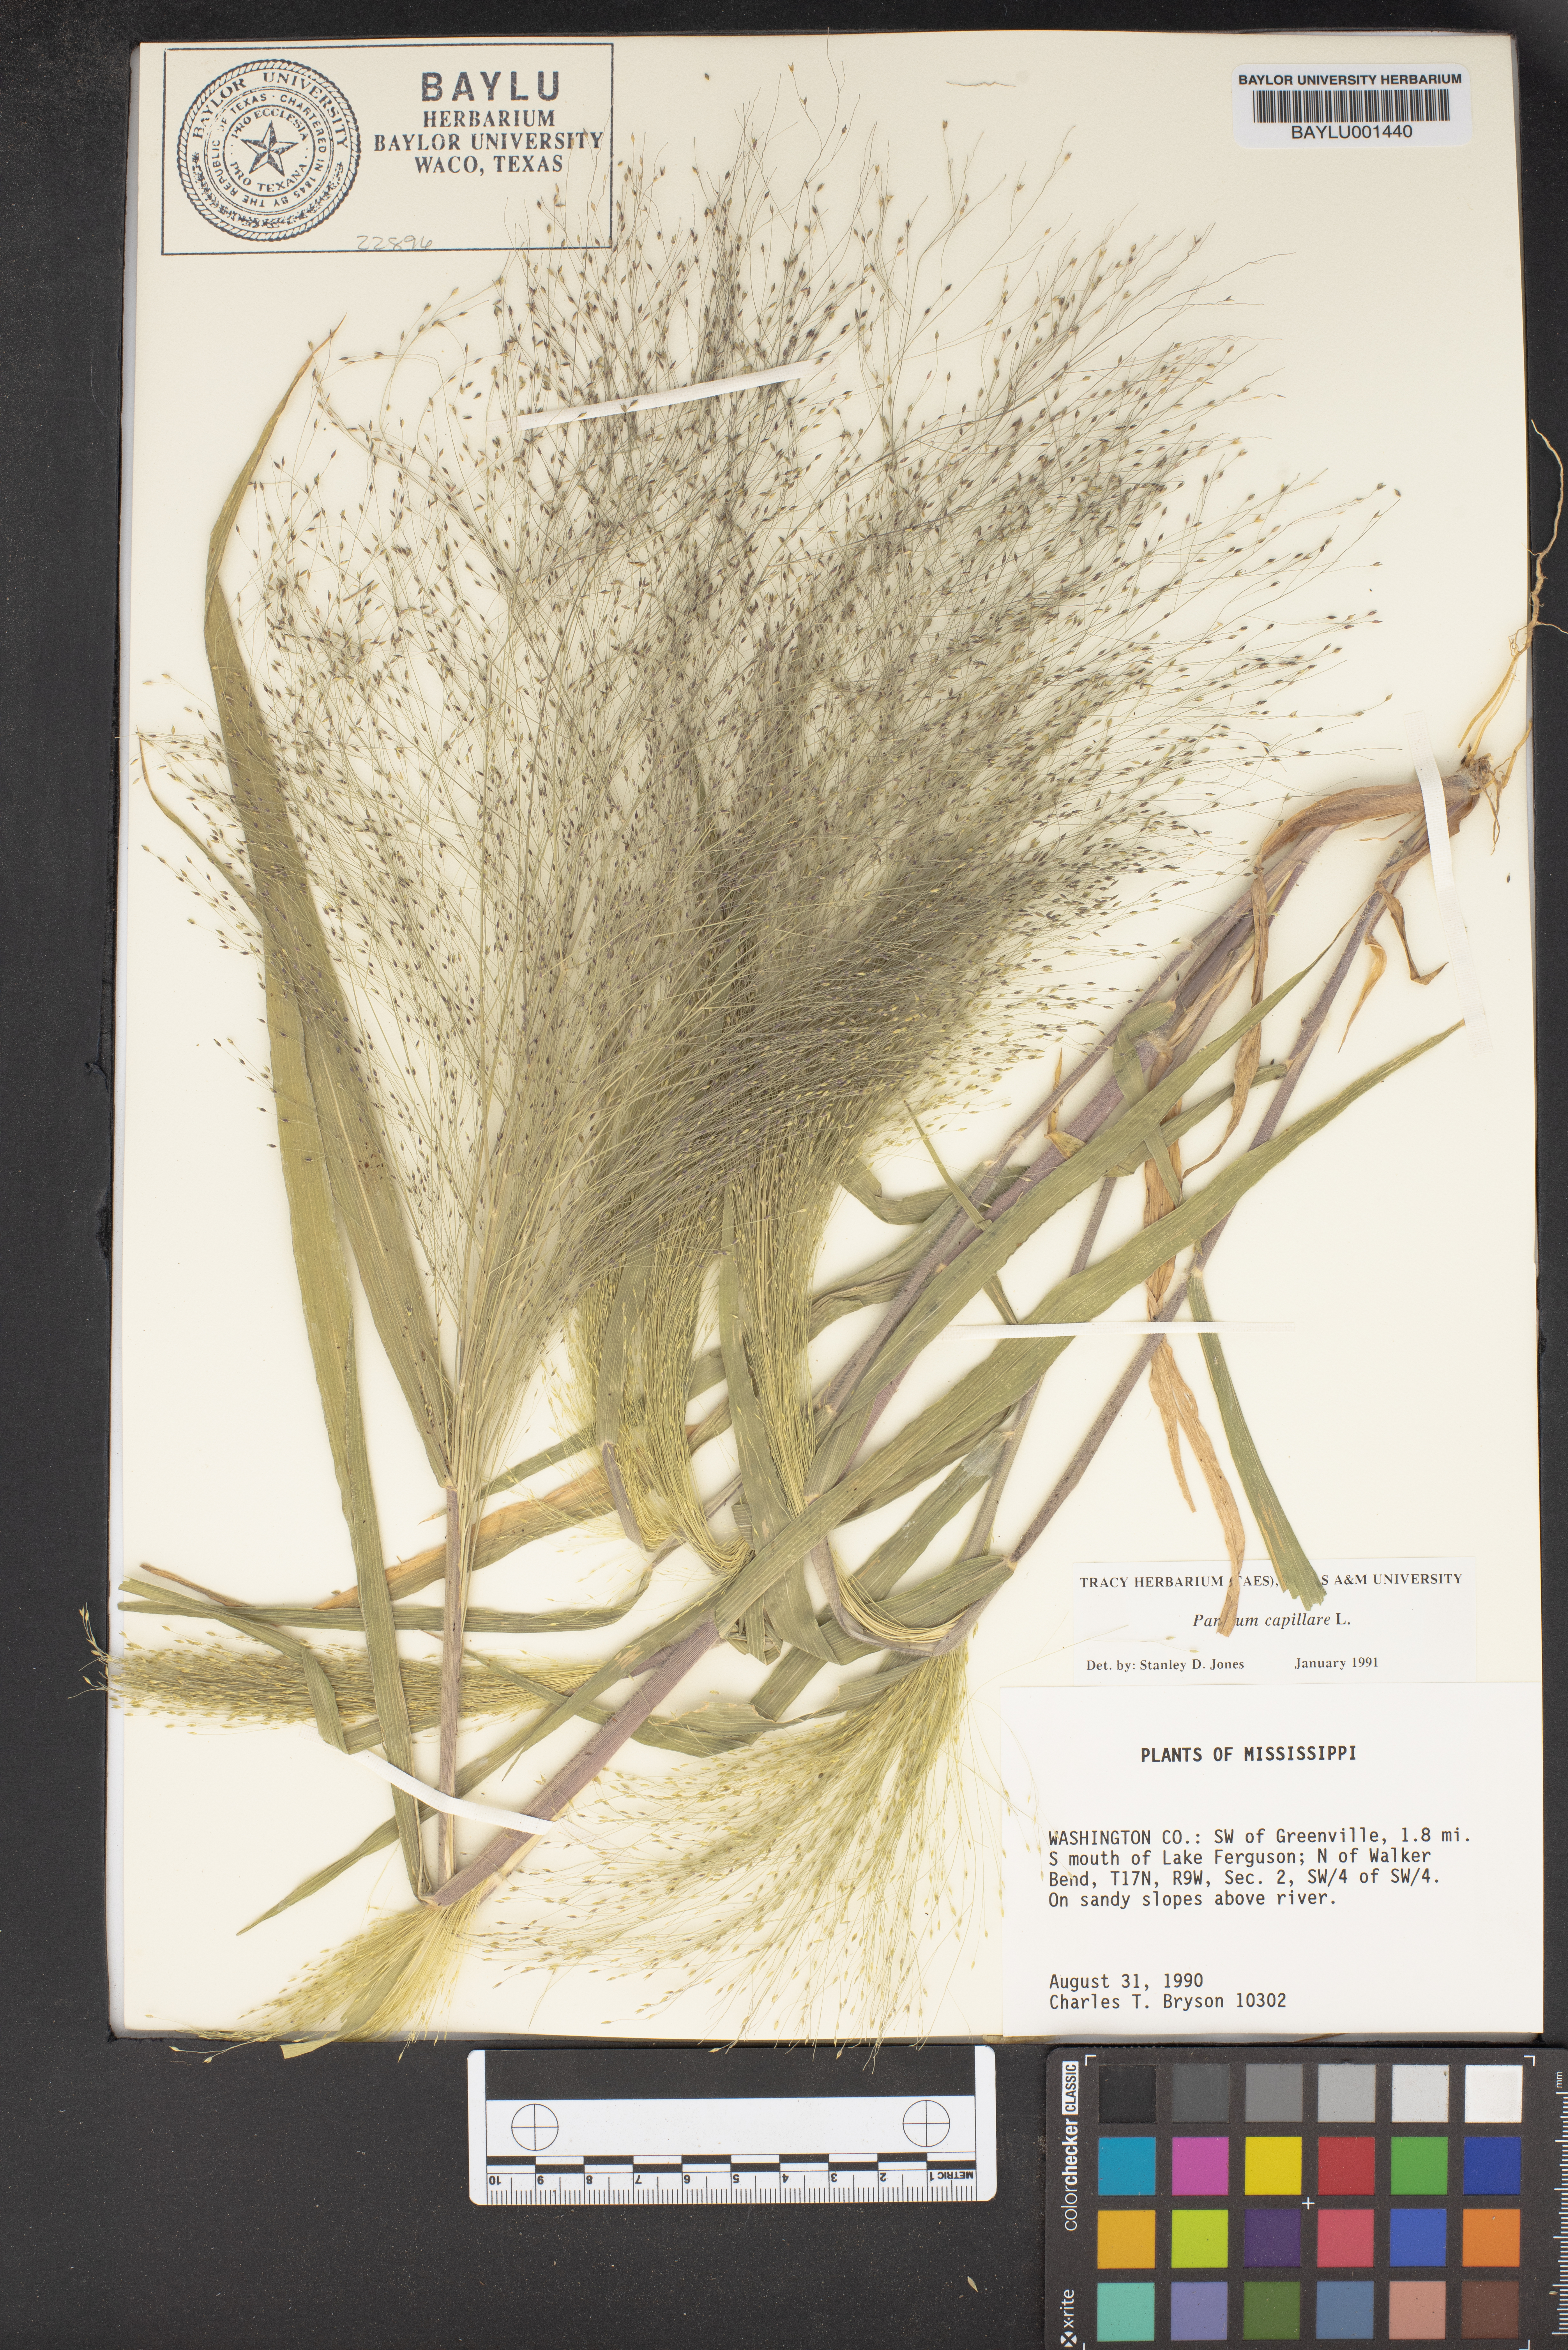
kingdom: Plantae
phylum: Tracheophyta
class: Liliopsida
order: Poales
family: Poaceae
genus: Panicum
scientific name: Panicum capillare
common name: Witch-grass
